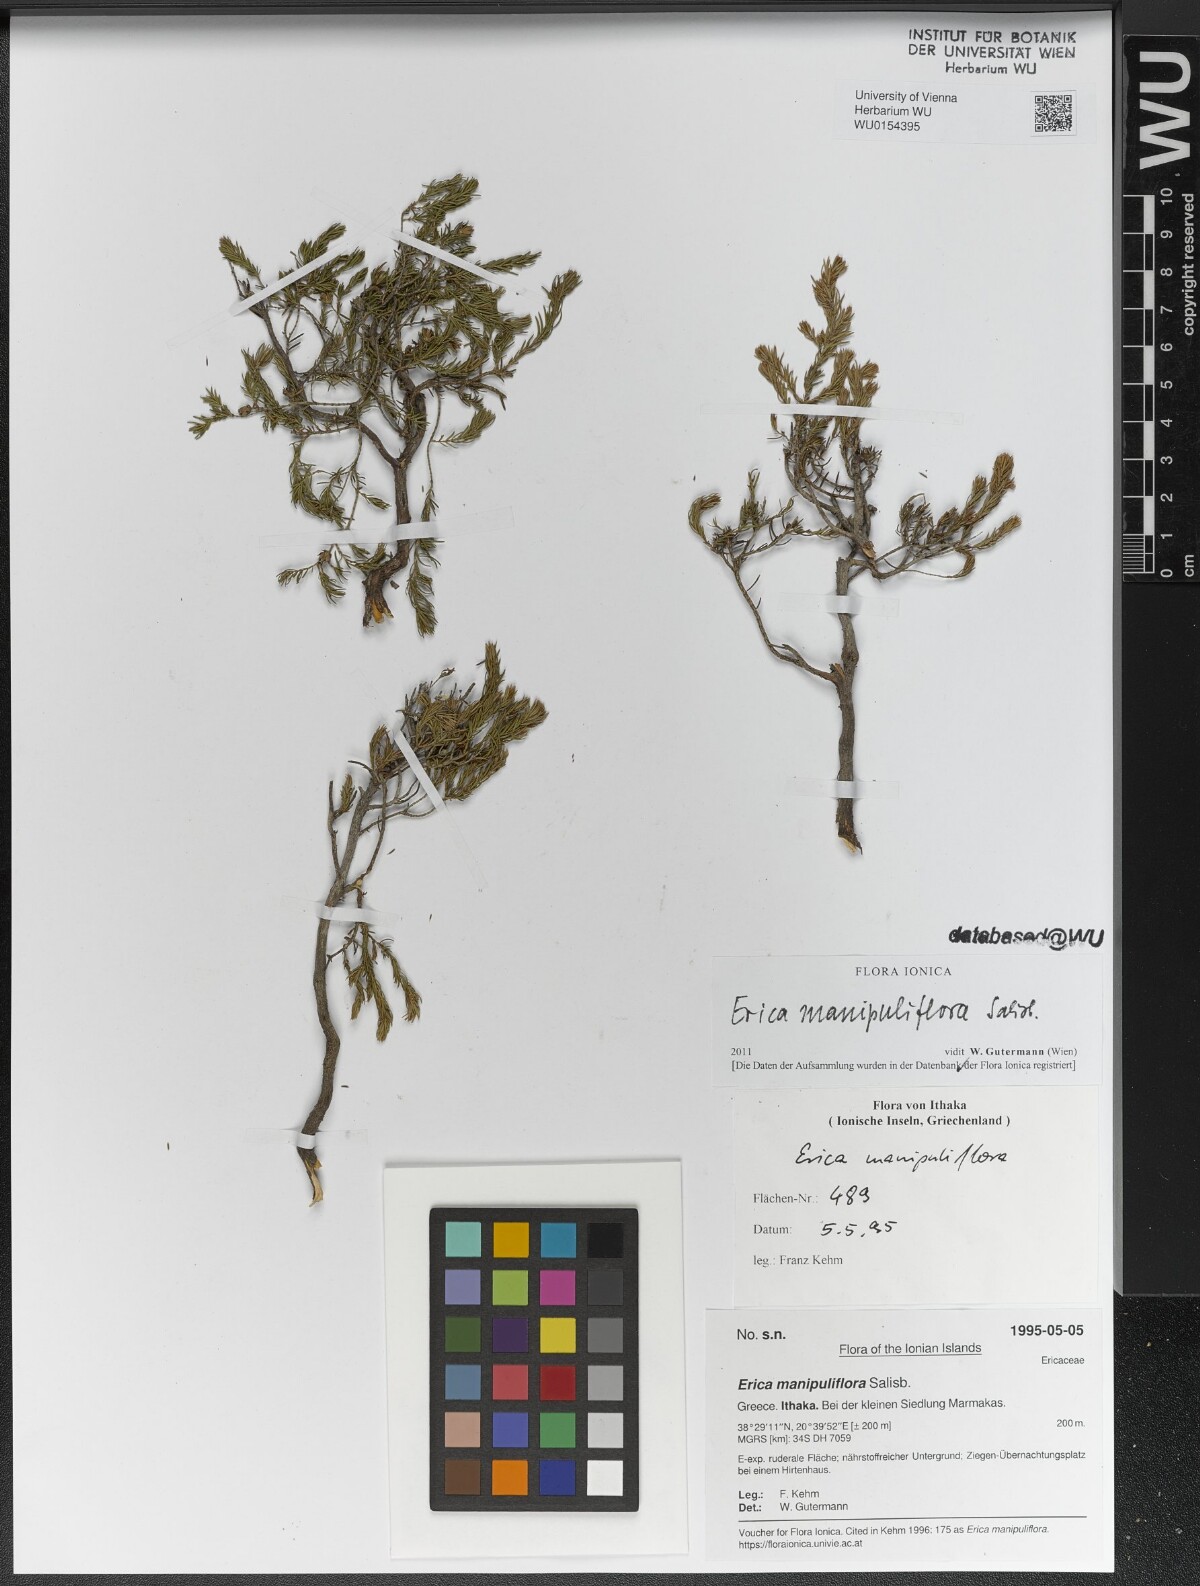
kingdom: Plantae
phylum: Tracheophyta
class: Magnoliopsida
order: Ericales
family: Ericaceae
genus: Erica
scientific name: Erica manipuliflora
